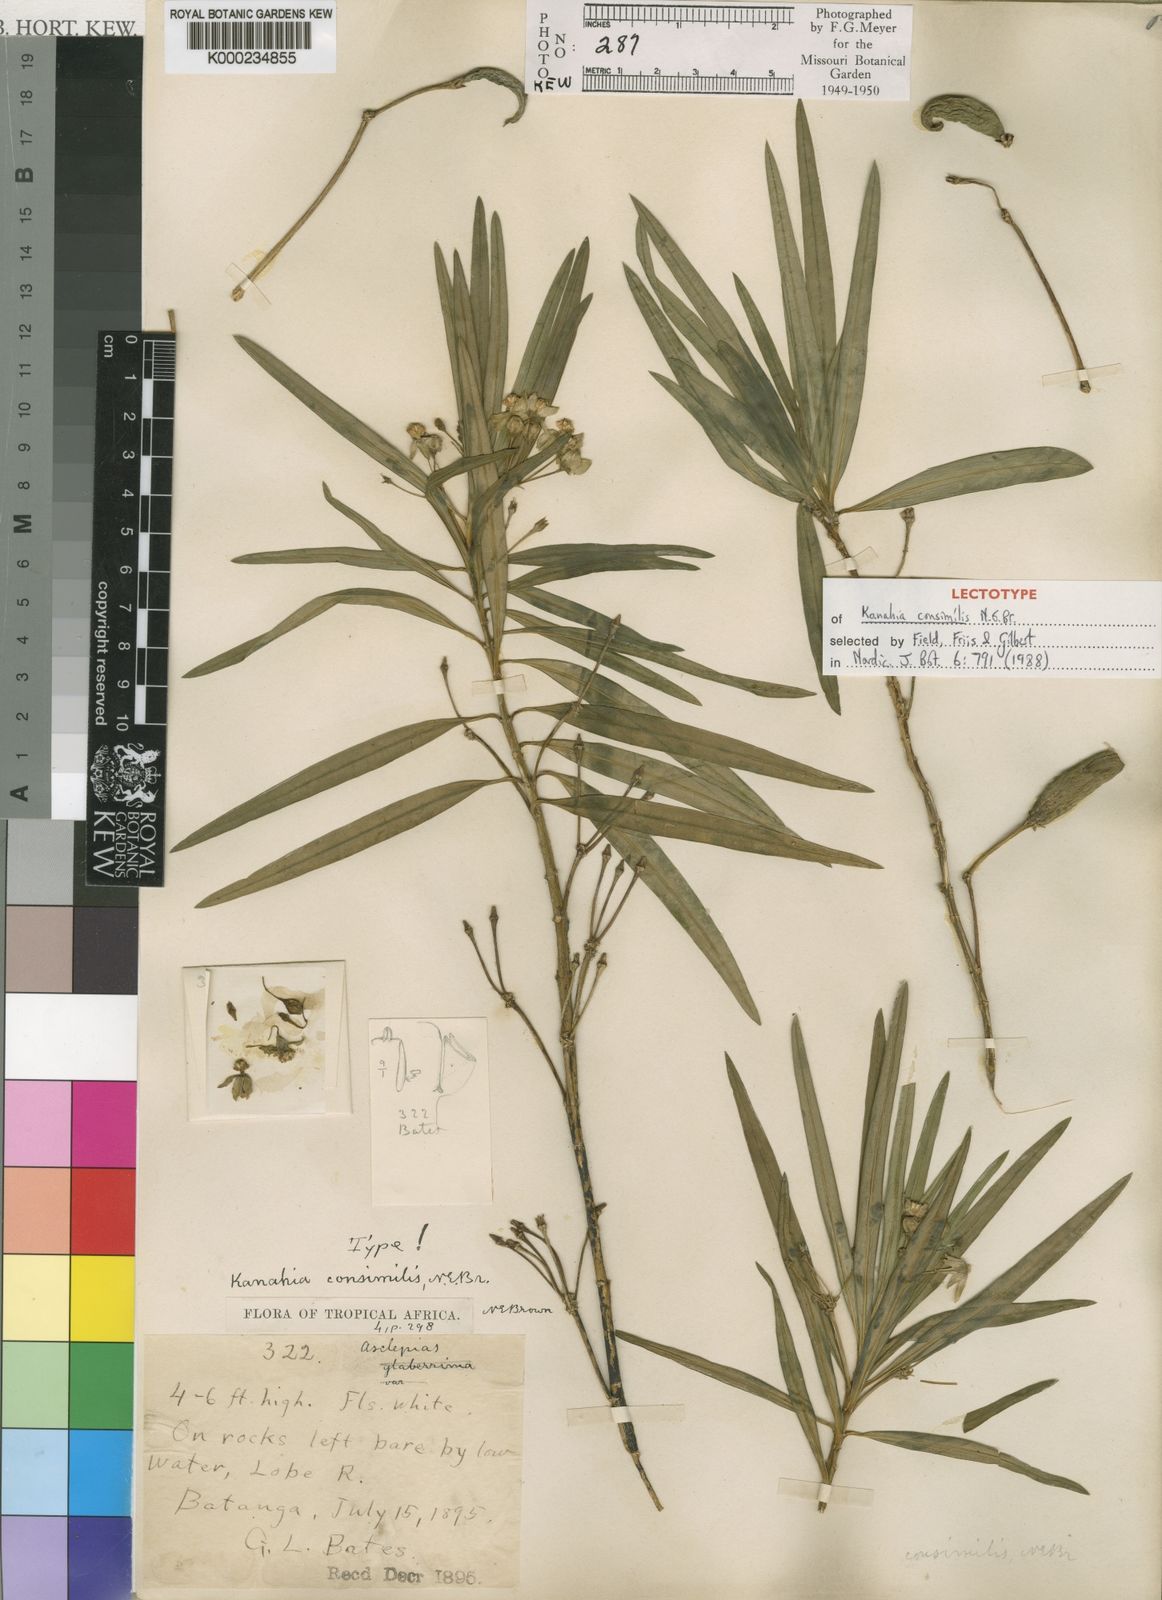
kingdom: Plantae
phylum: Tracheophyta
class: Magnoliopsida
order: Gentianales
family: Apocynaceae
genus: Kanahia
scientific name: Kanahia laniflora
